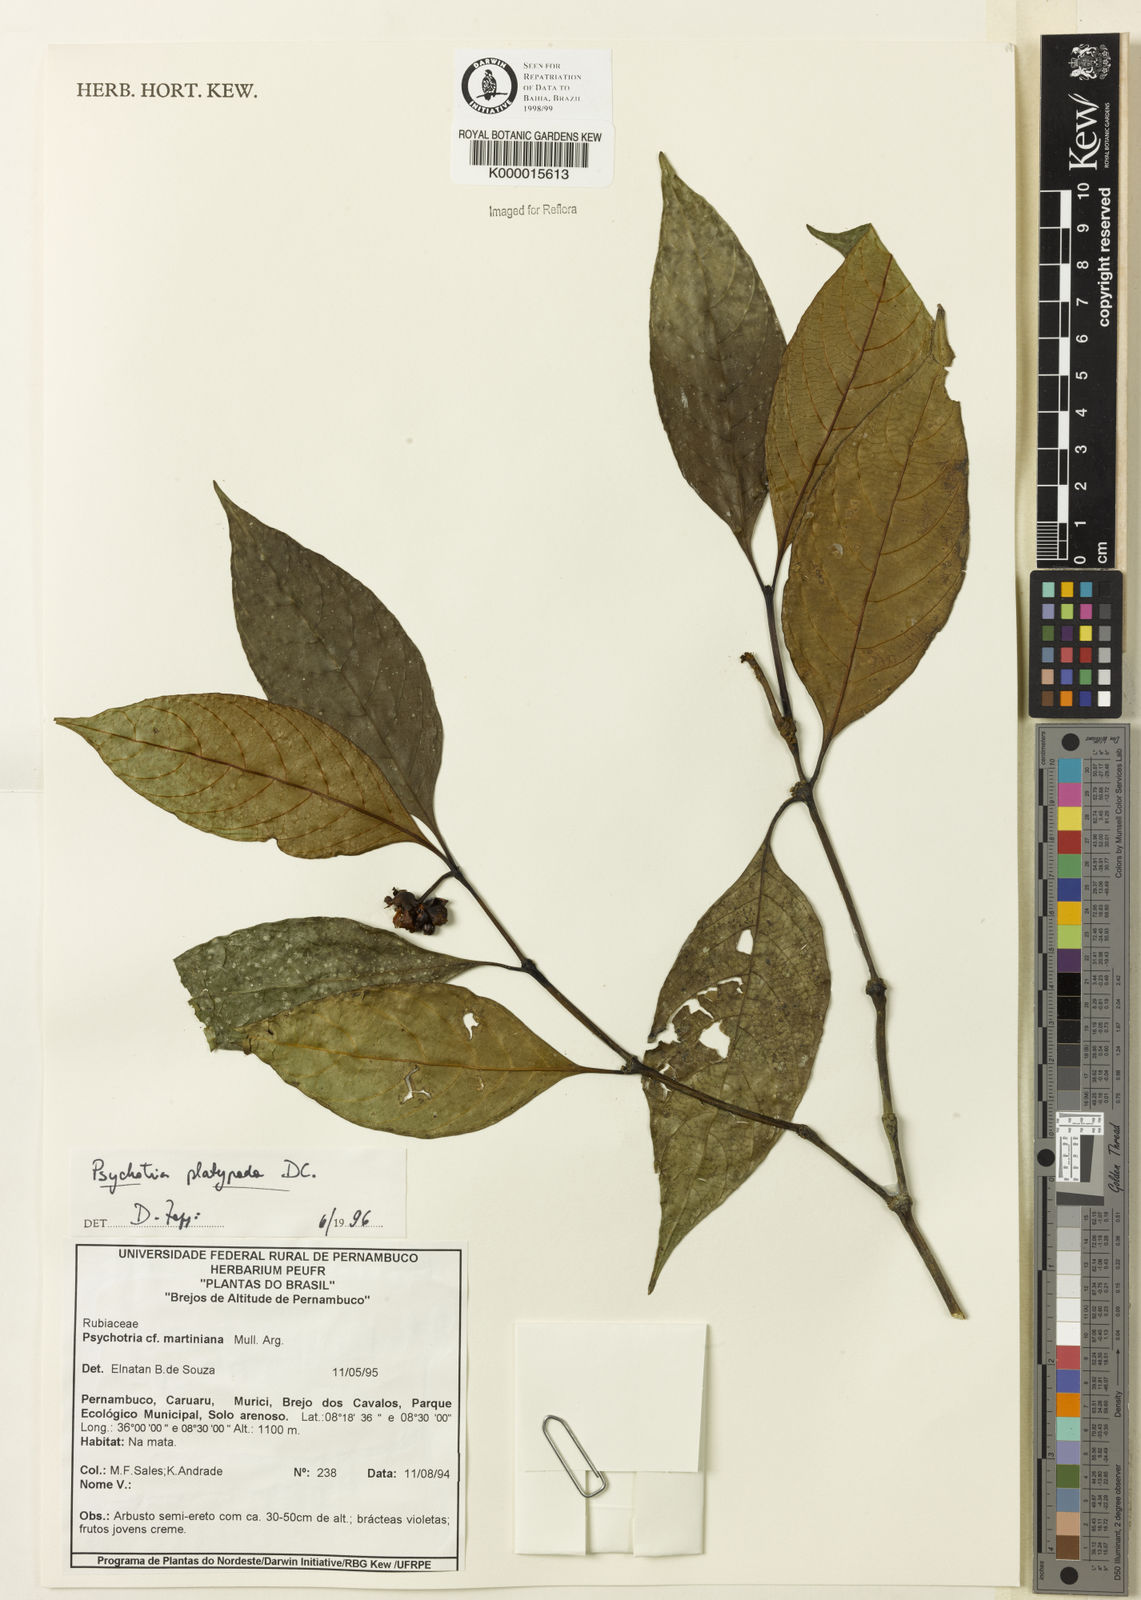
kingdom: Plantae
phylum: Tracheophyta
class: Magnoliopsida
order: Gentianales
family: Rubiaceae
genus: Palicourea
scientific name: Palicourea dichotoma
